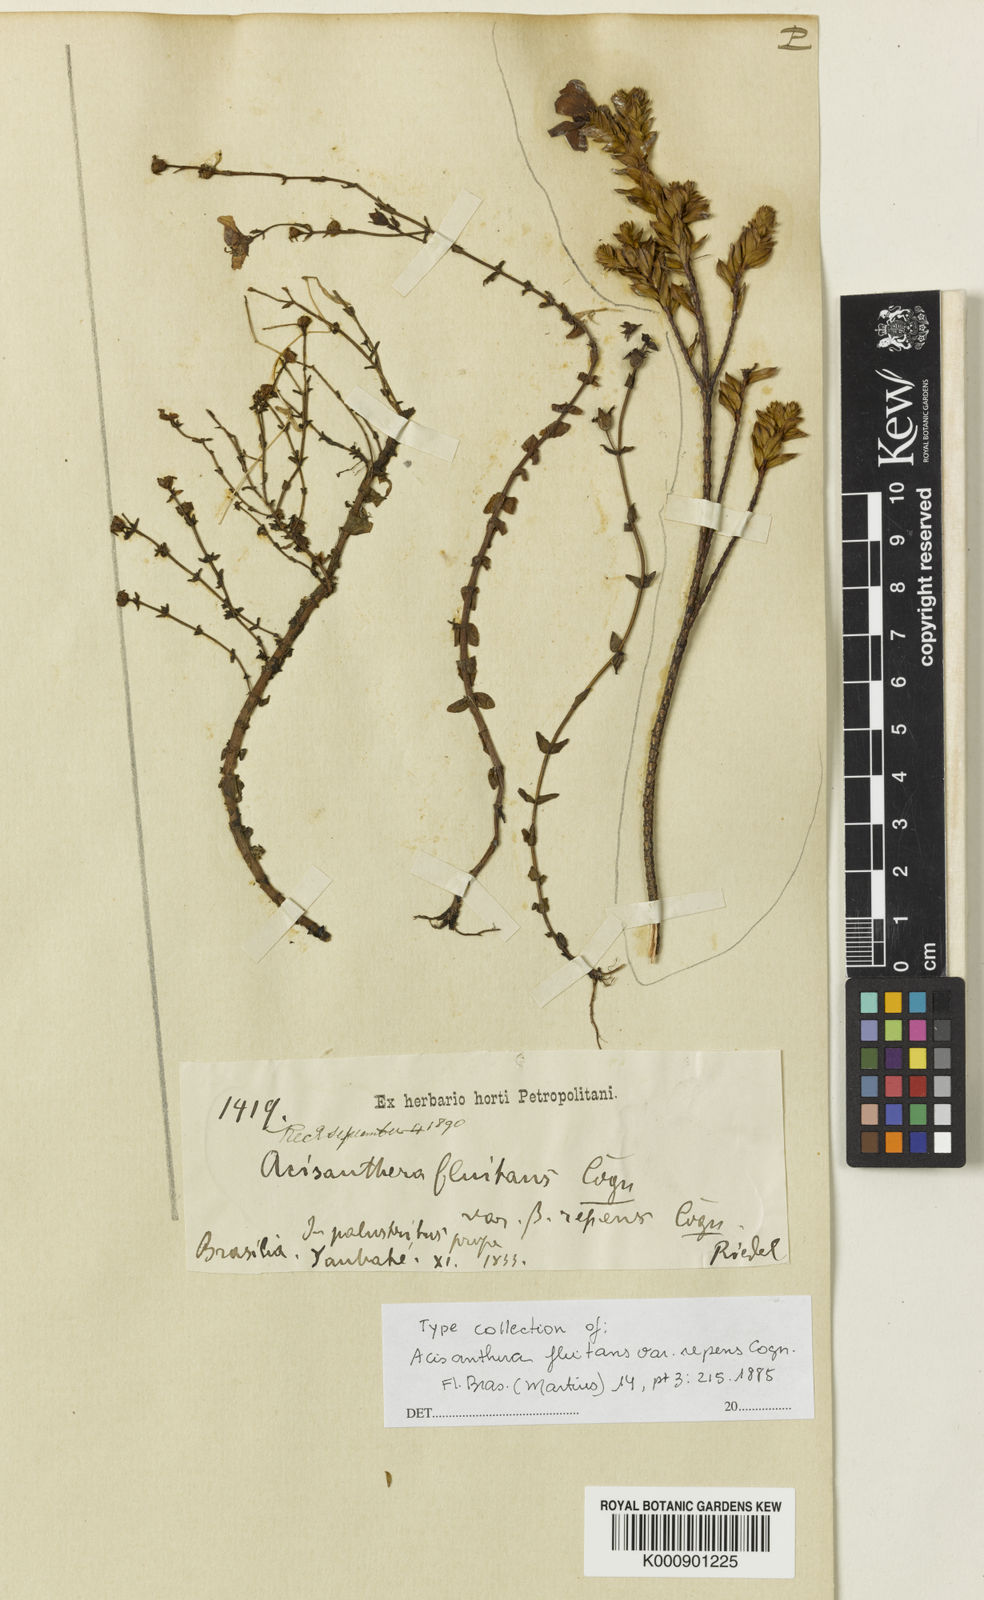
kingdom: Plantae
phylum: Tracheophyta
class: Magnoliopsida
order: Myrtales
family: Melastomataceae
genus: Noterophila
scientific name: Noterophila limnobios
